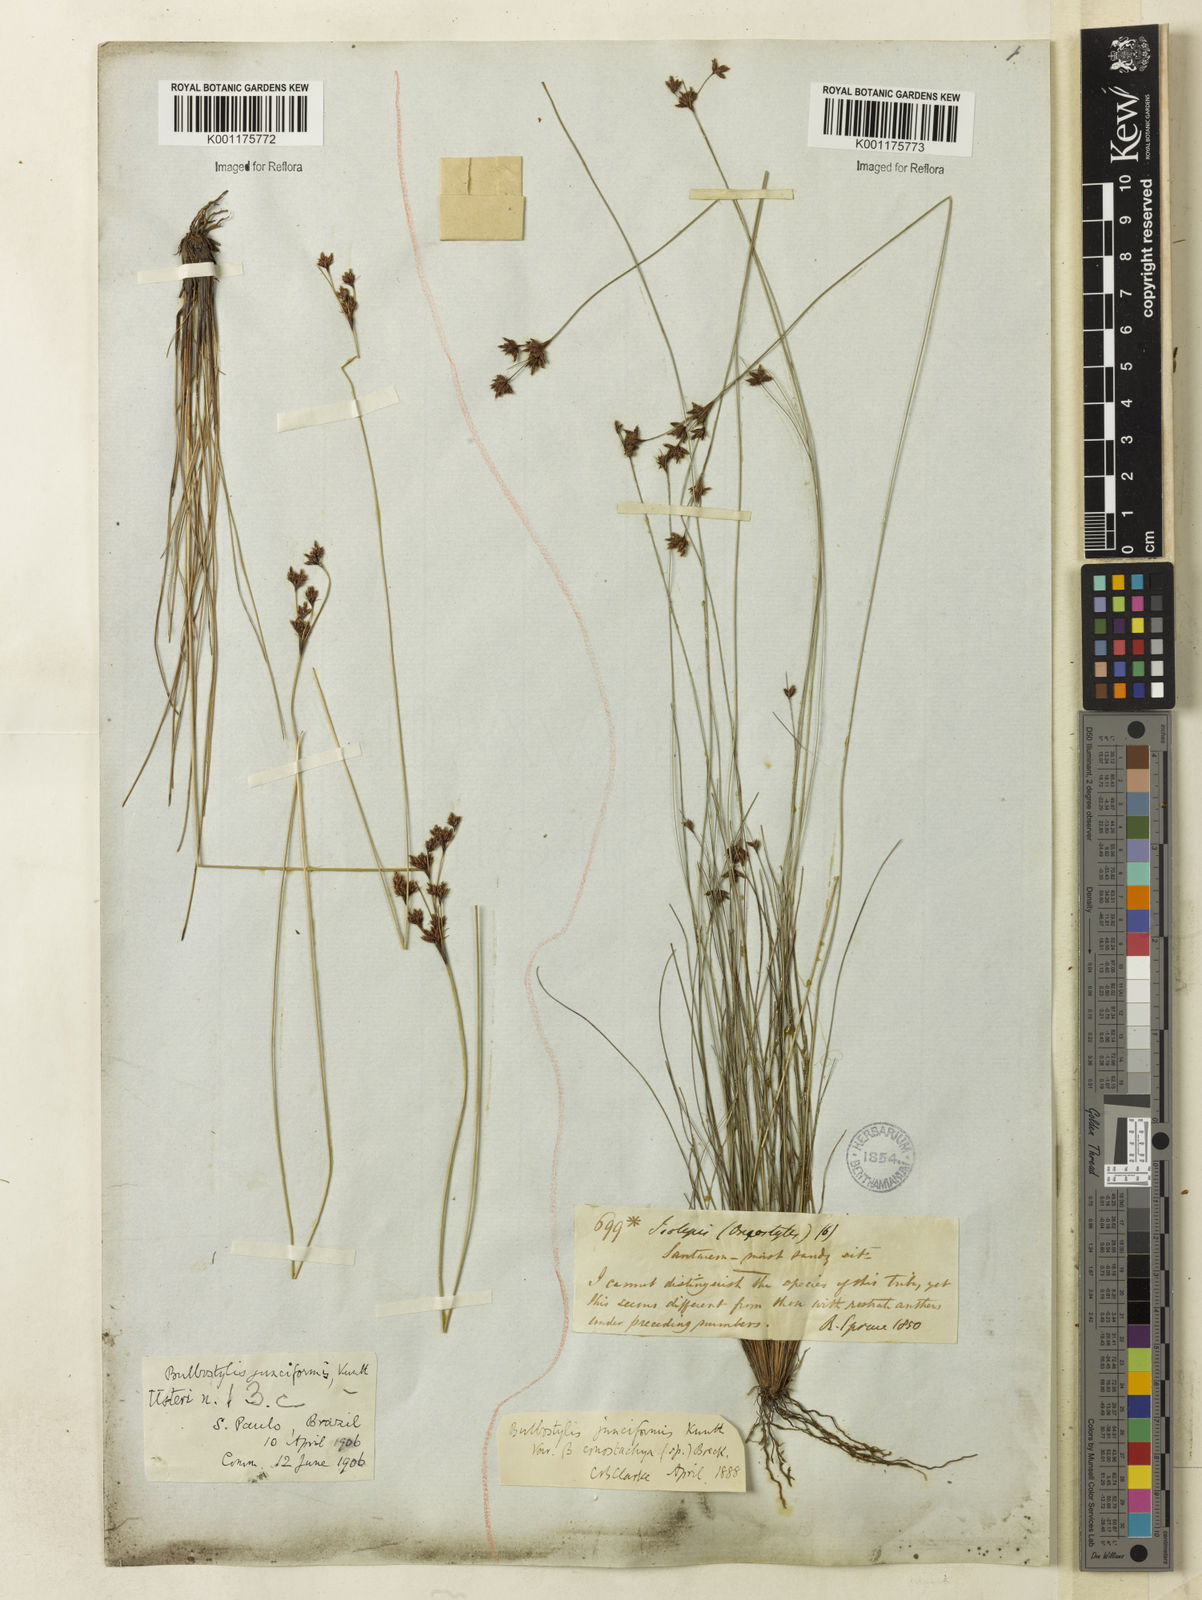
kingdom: Plantae
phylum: Tracheophyta
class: Liliopsida
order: Poales
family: Cyperaceae
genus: Bulbostylis
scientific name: Bulbostylis junciformis
